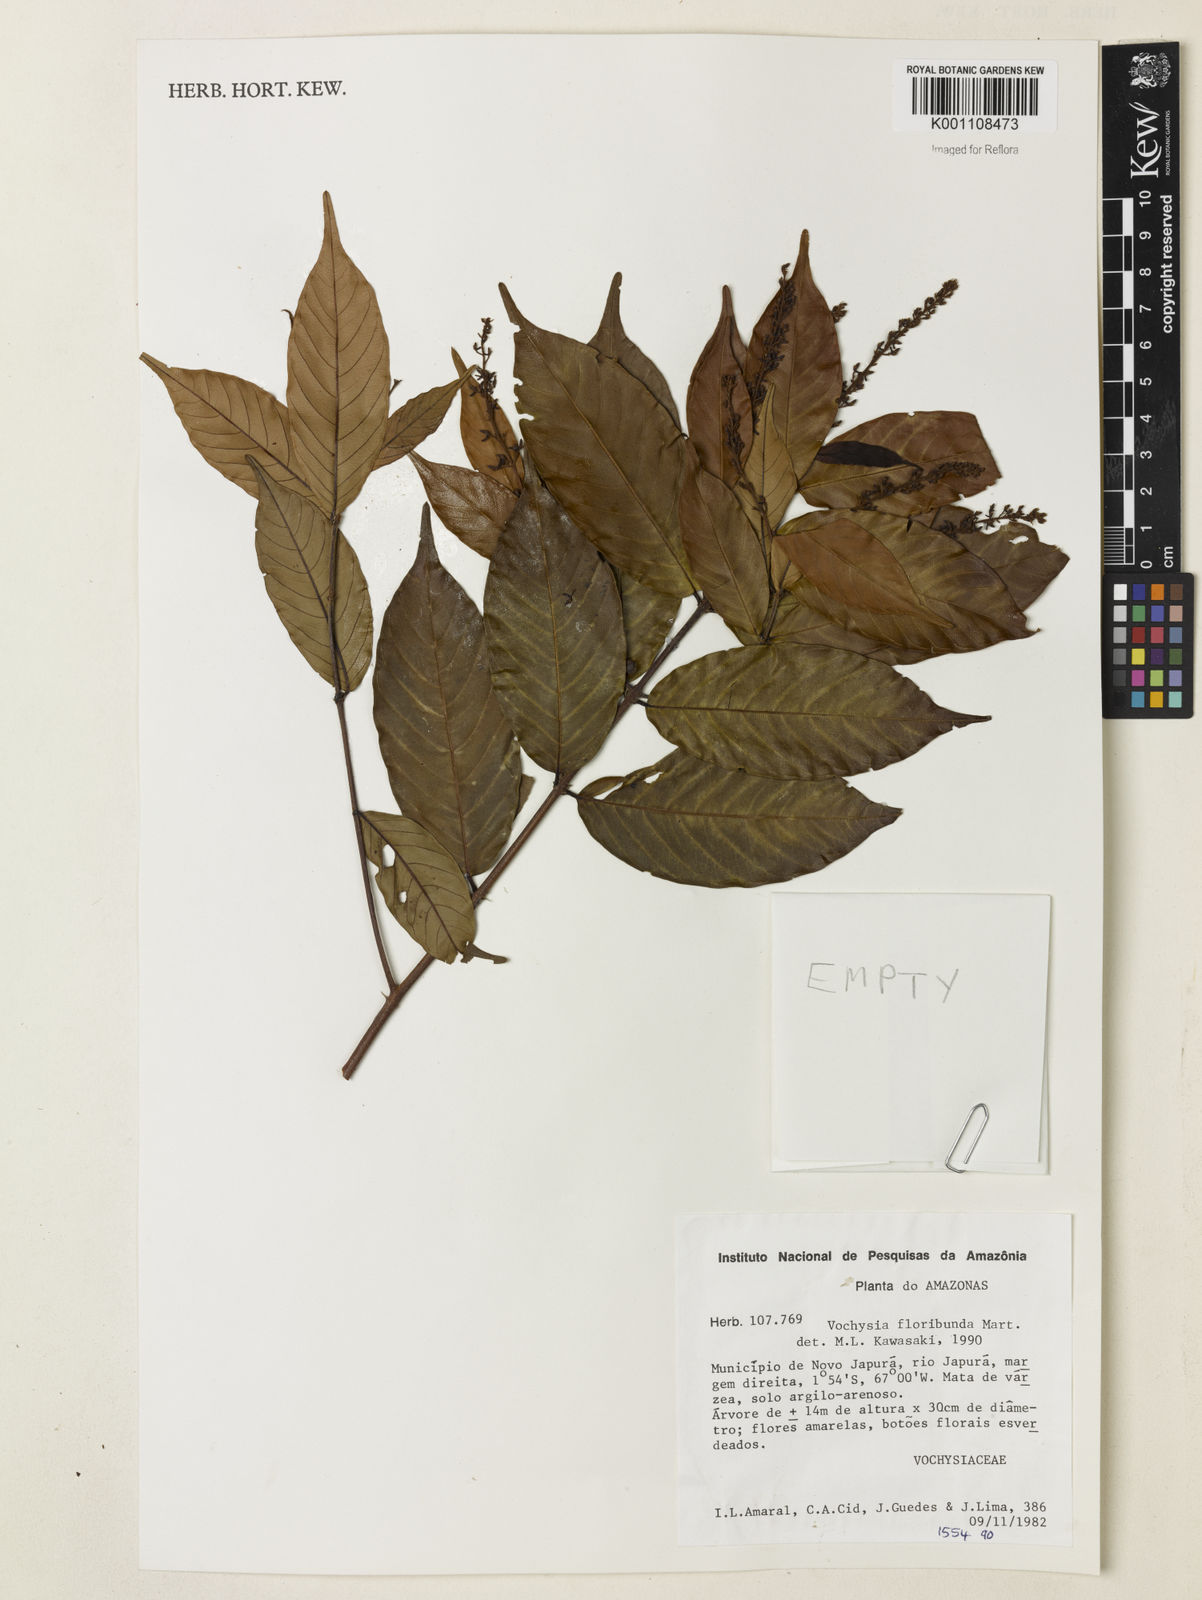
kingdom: Plantae
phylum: Tracheophyta
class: Magnoliopsida
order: Myrtales
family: Vochysiaceae
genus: Vochysia
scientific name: Vochysia floribunda
